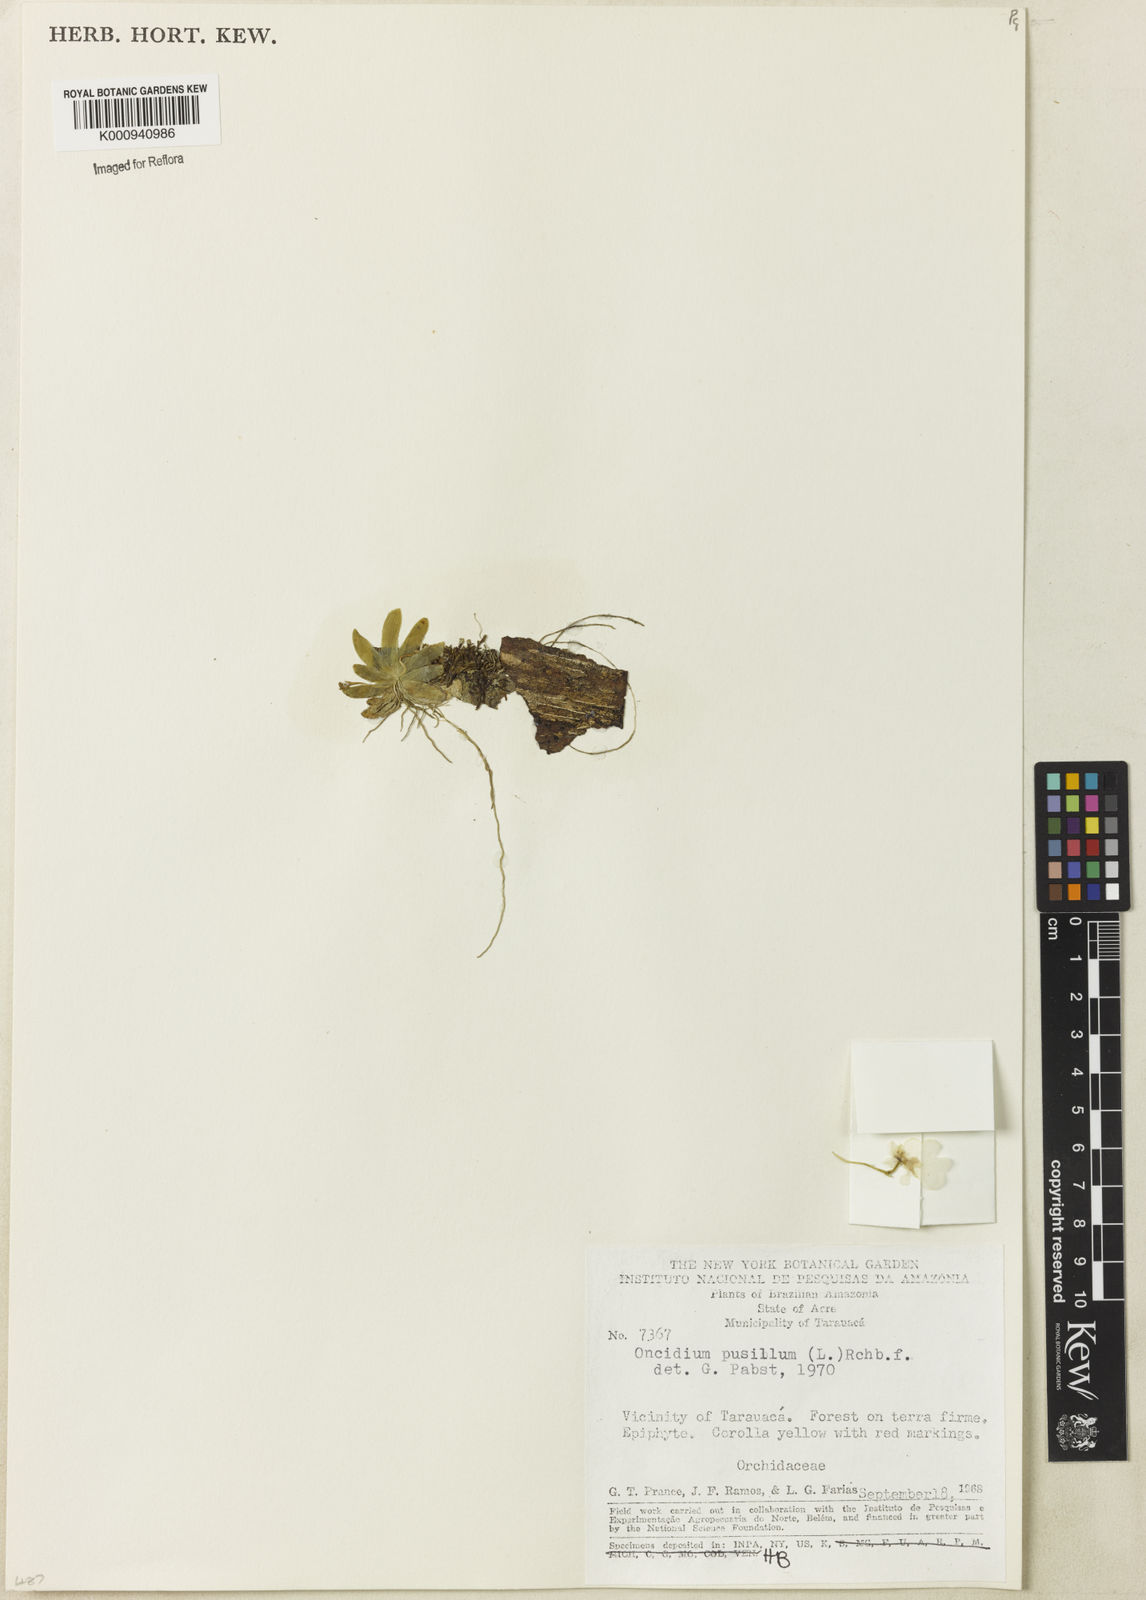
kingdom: Plantae
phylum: Tracheophyta
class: Liliopsida
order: Asparagales
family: Orchidaceae
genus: Erycina
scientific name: Erycina pusilla
